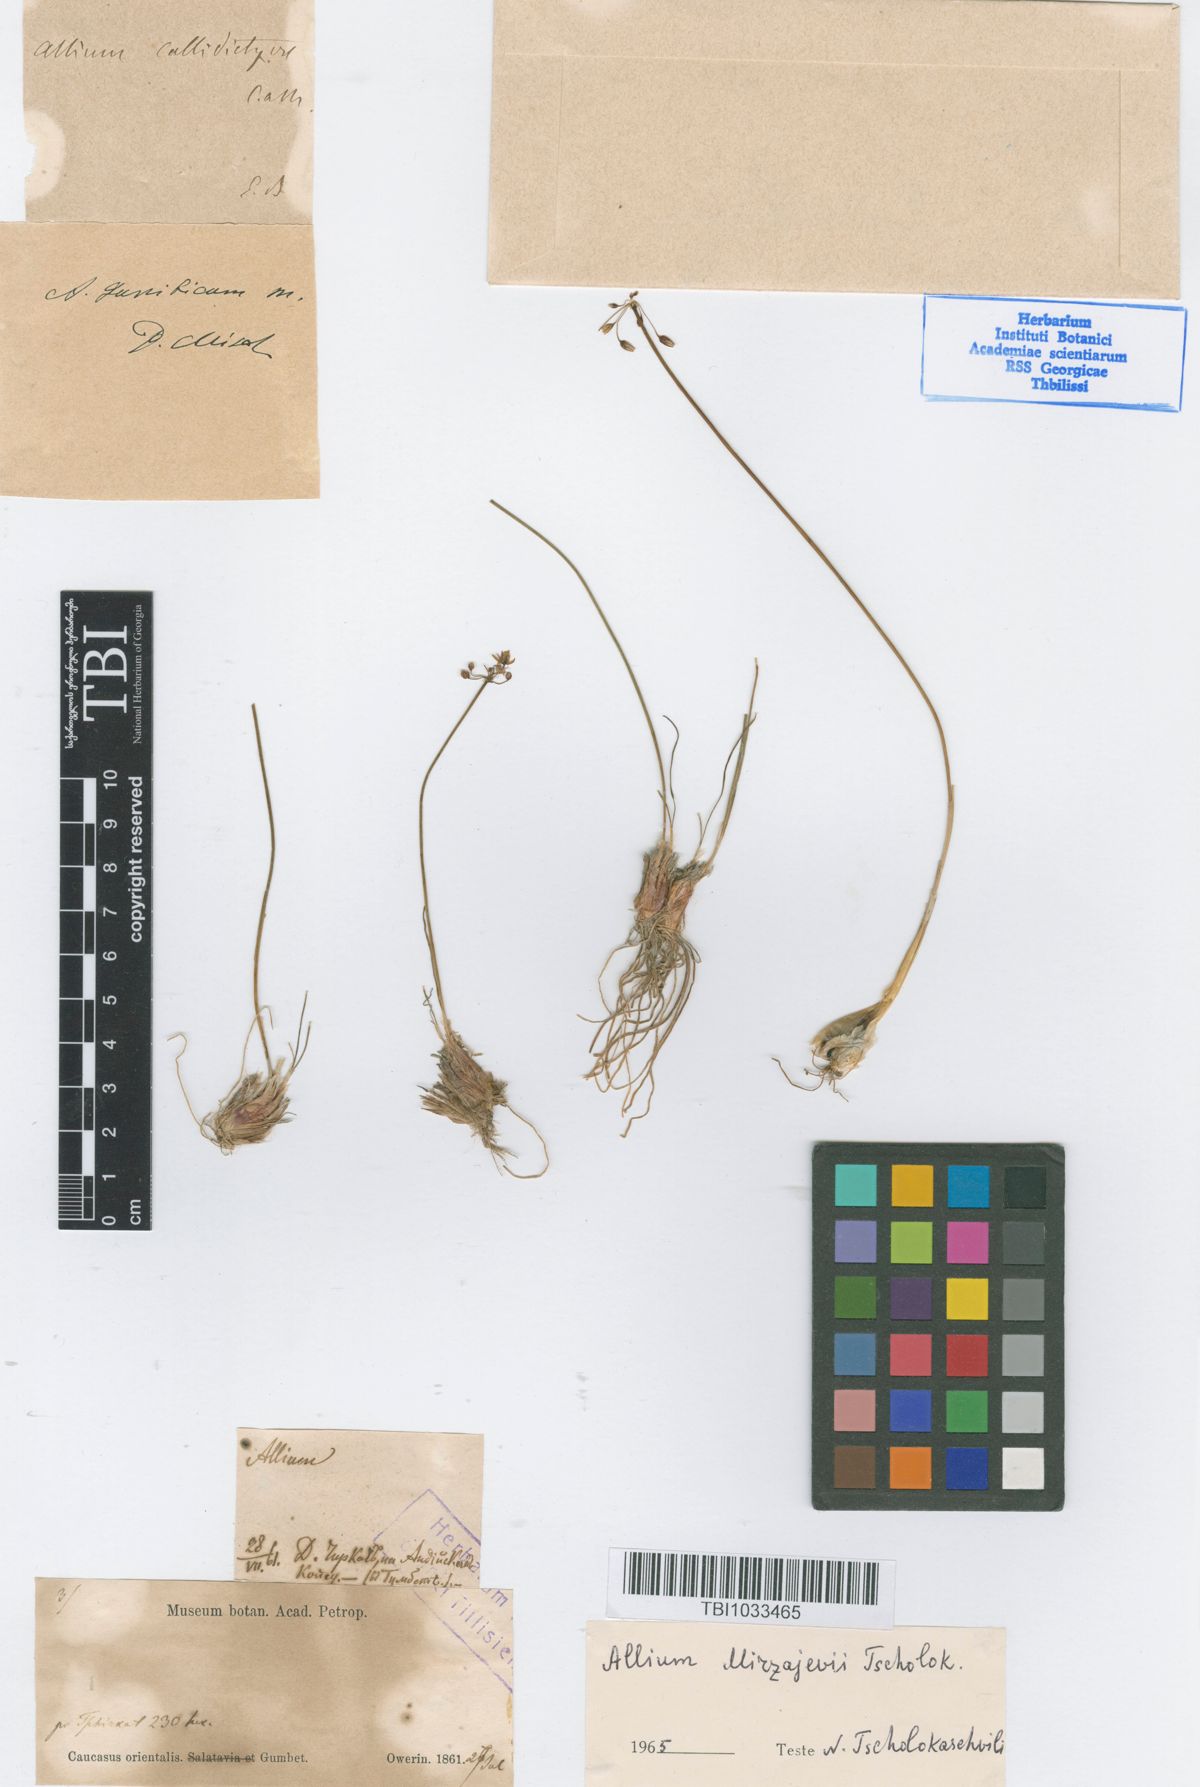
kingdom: Plantae
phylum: Tracheophyta
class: Liliopsida
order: Asparagales
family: Amaryllidaceae
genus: Allium
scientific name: Allium mirzajevii
